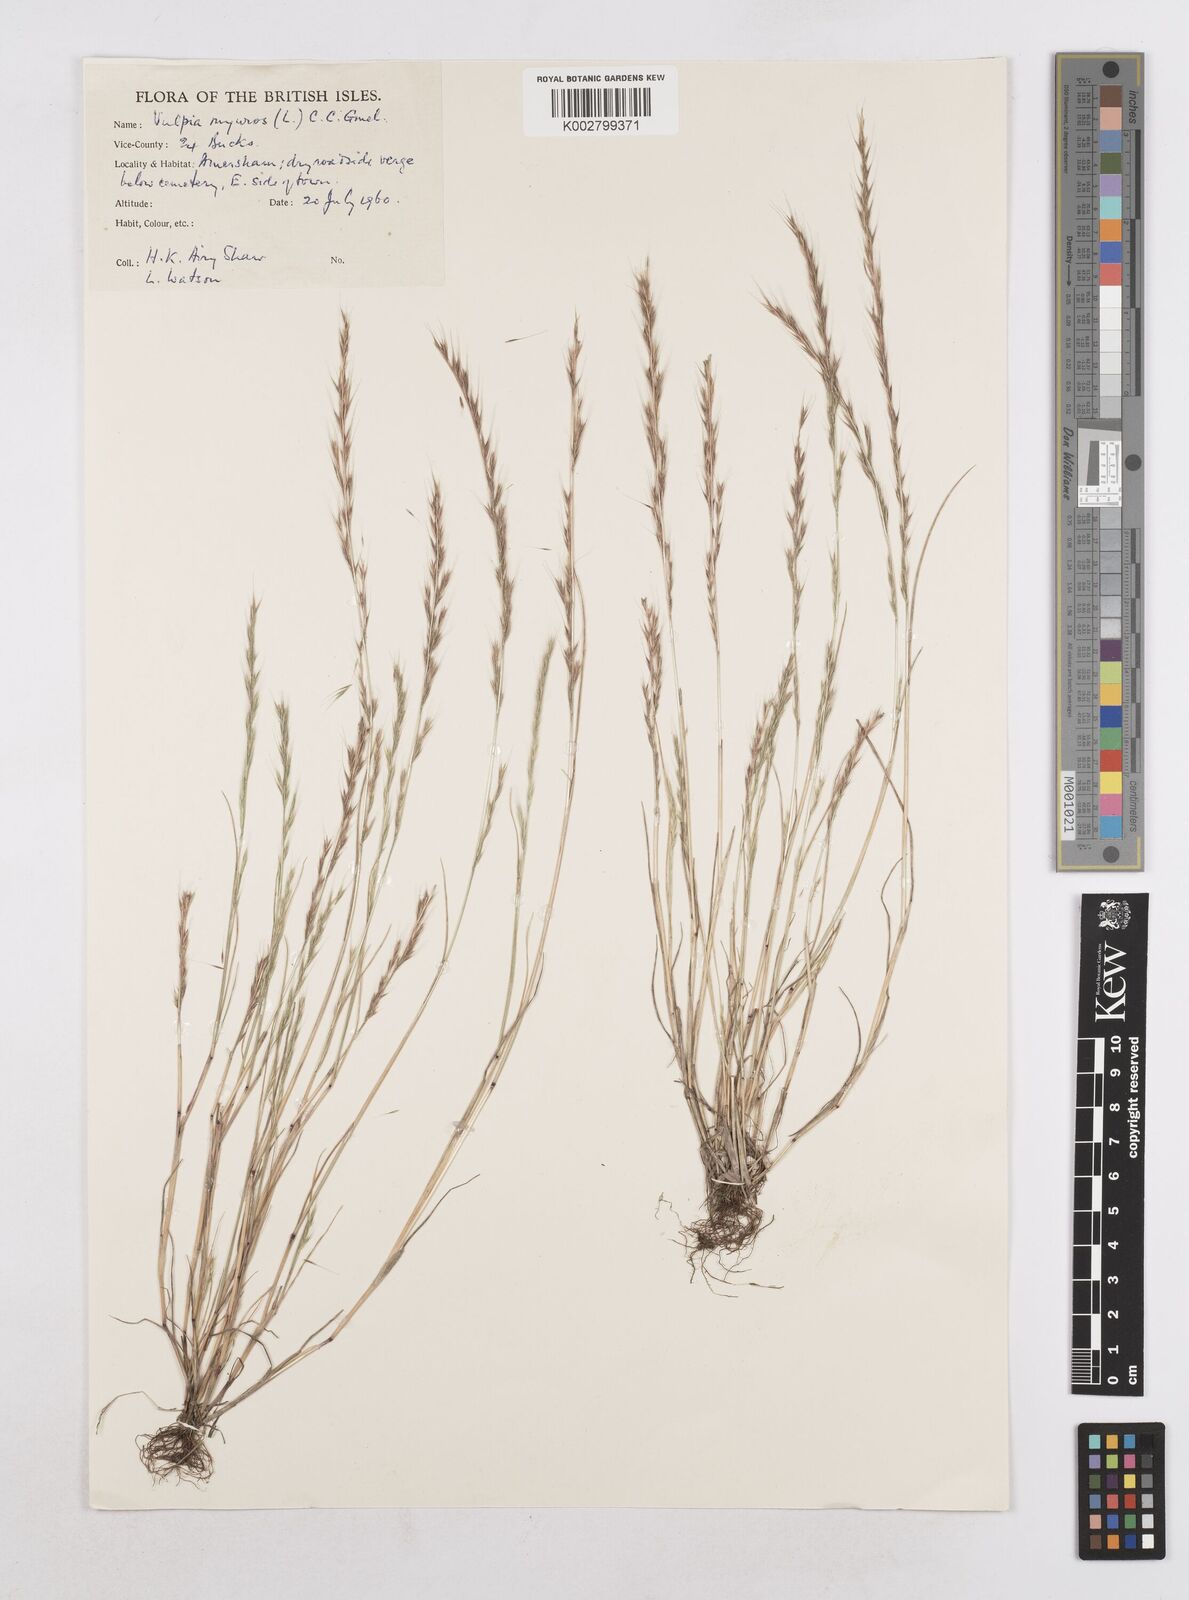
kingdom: Plantae
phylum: Tracheophyta
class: Liliopsida
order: Poales
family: Poaceae
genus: Festuca
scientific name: Festuca myuros
